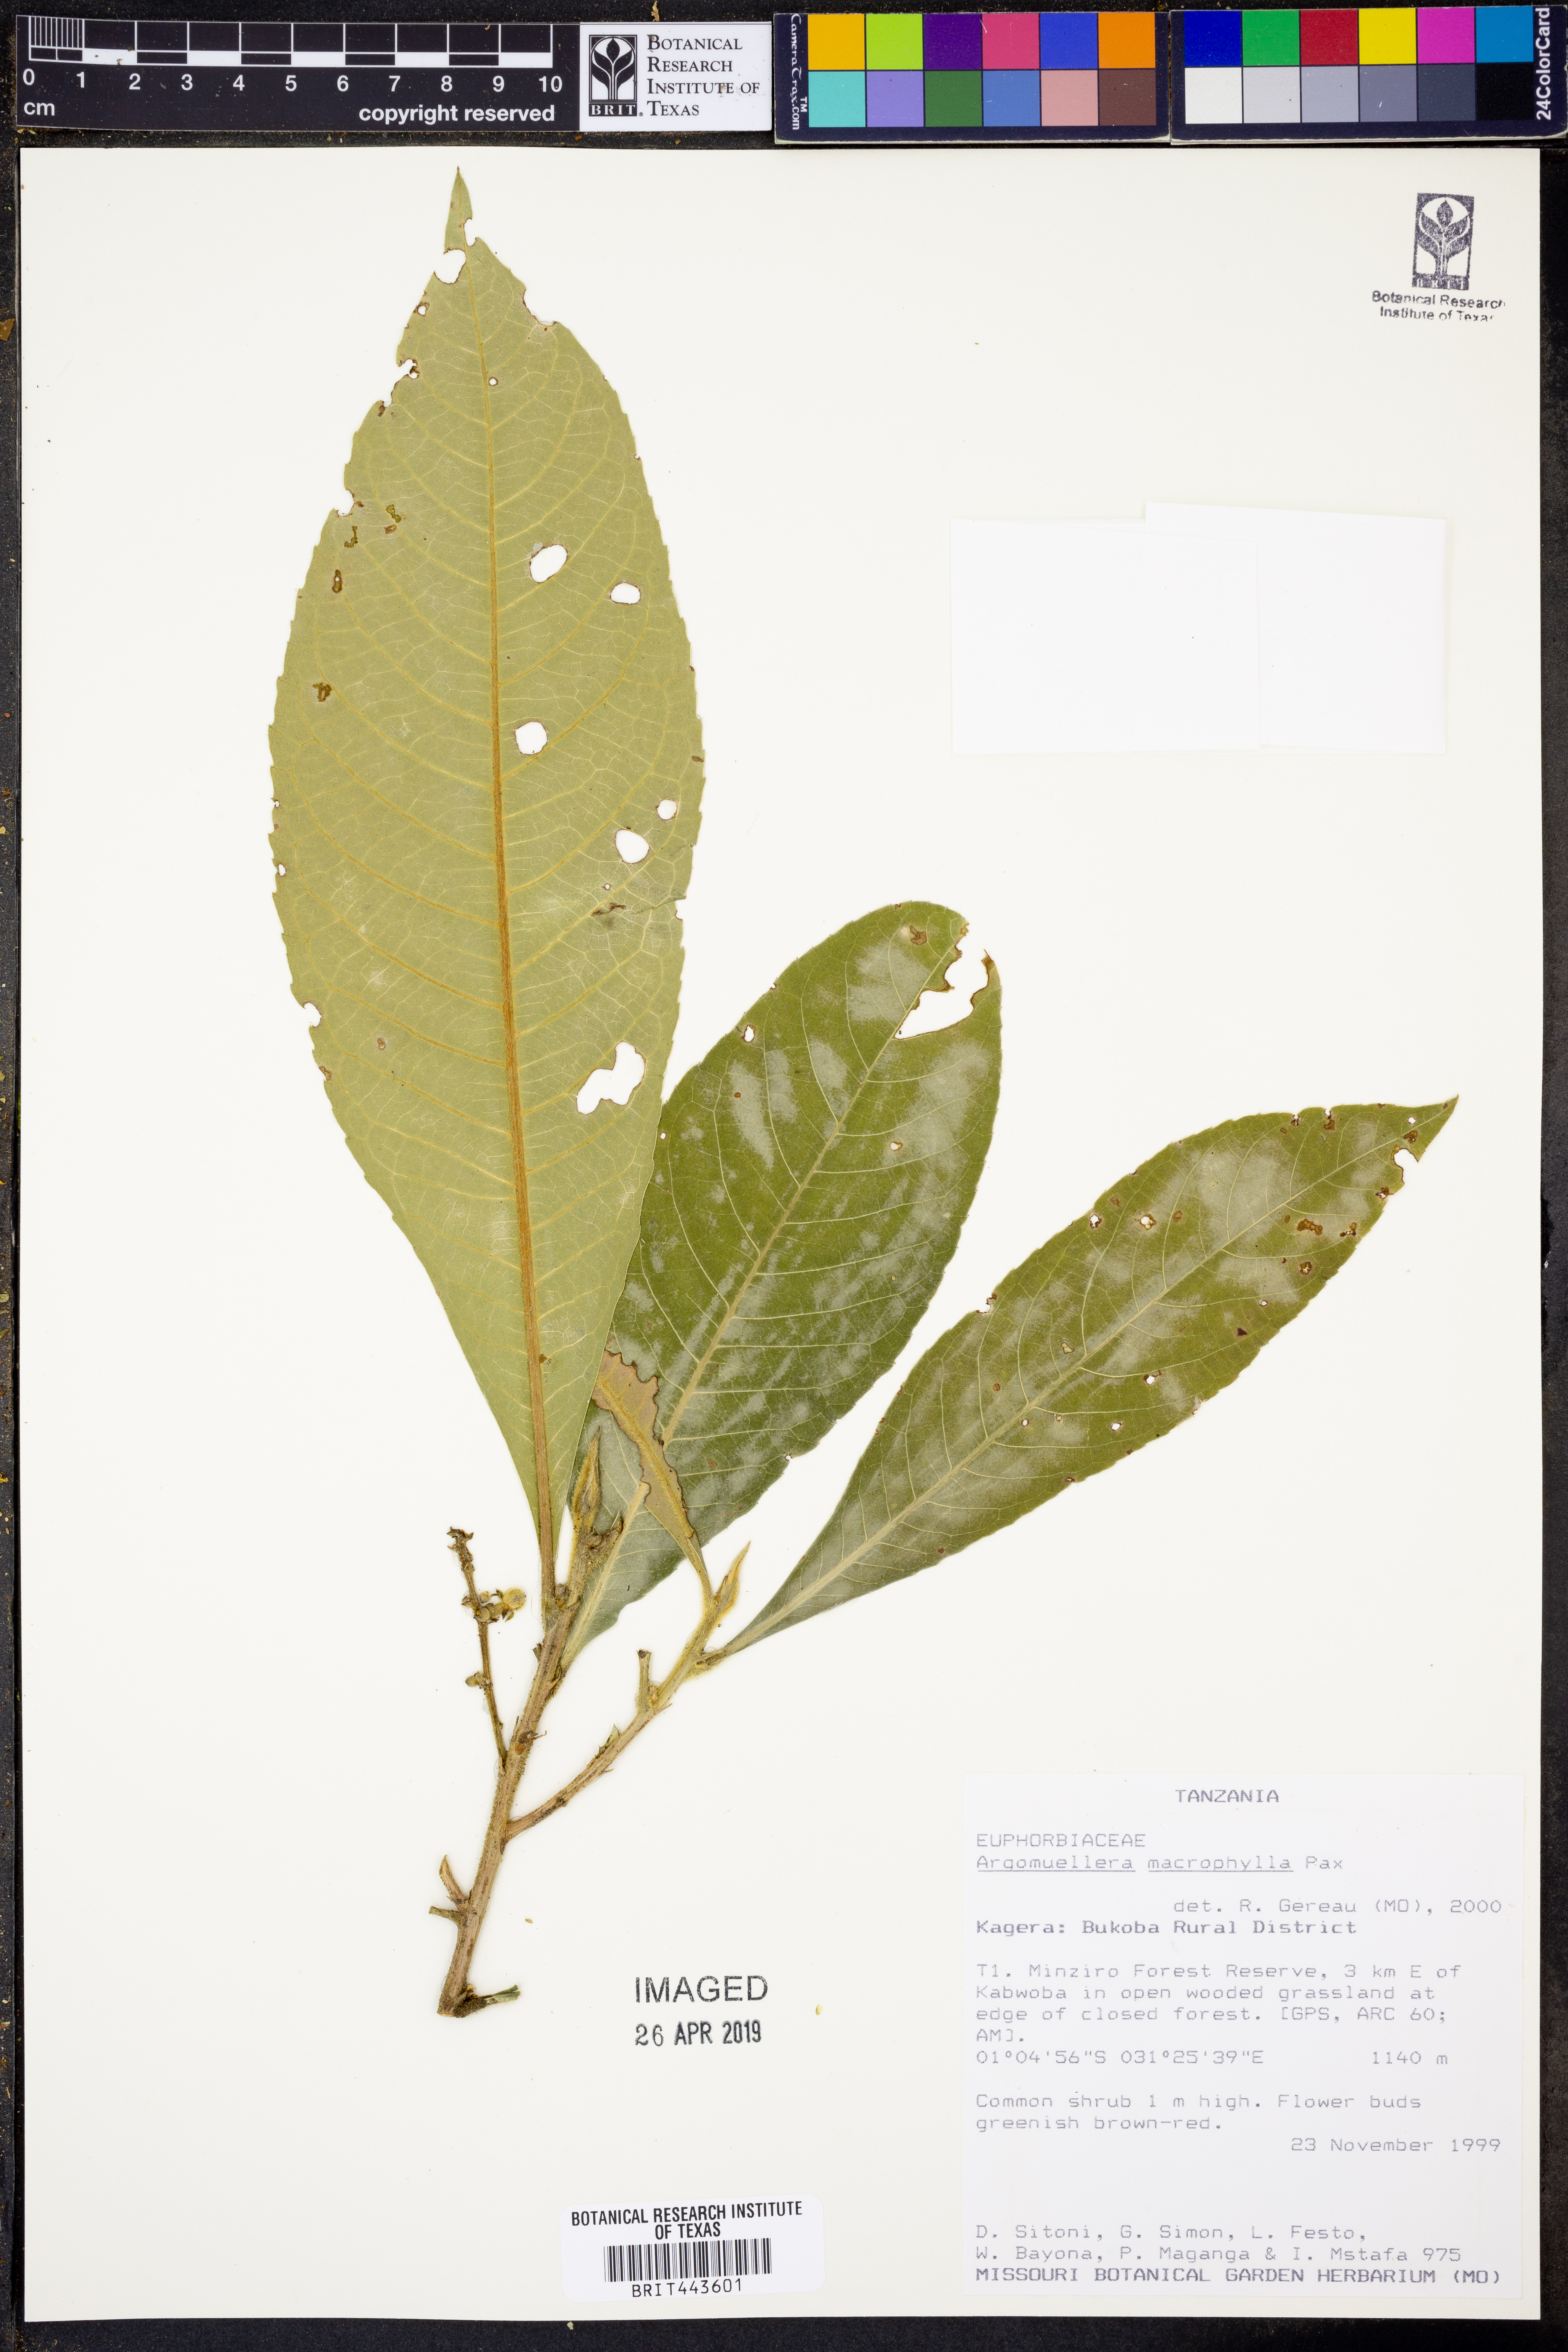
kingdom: Plantae
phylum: Tracheophyta
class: Magnoliopsida
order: Malpighiales
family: Euphorbiaceae
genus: Argomuellera
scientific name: Argomuellera macrophylla
